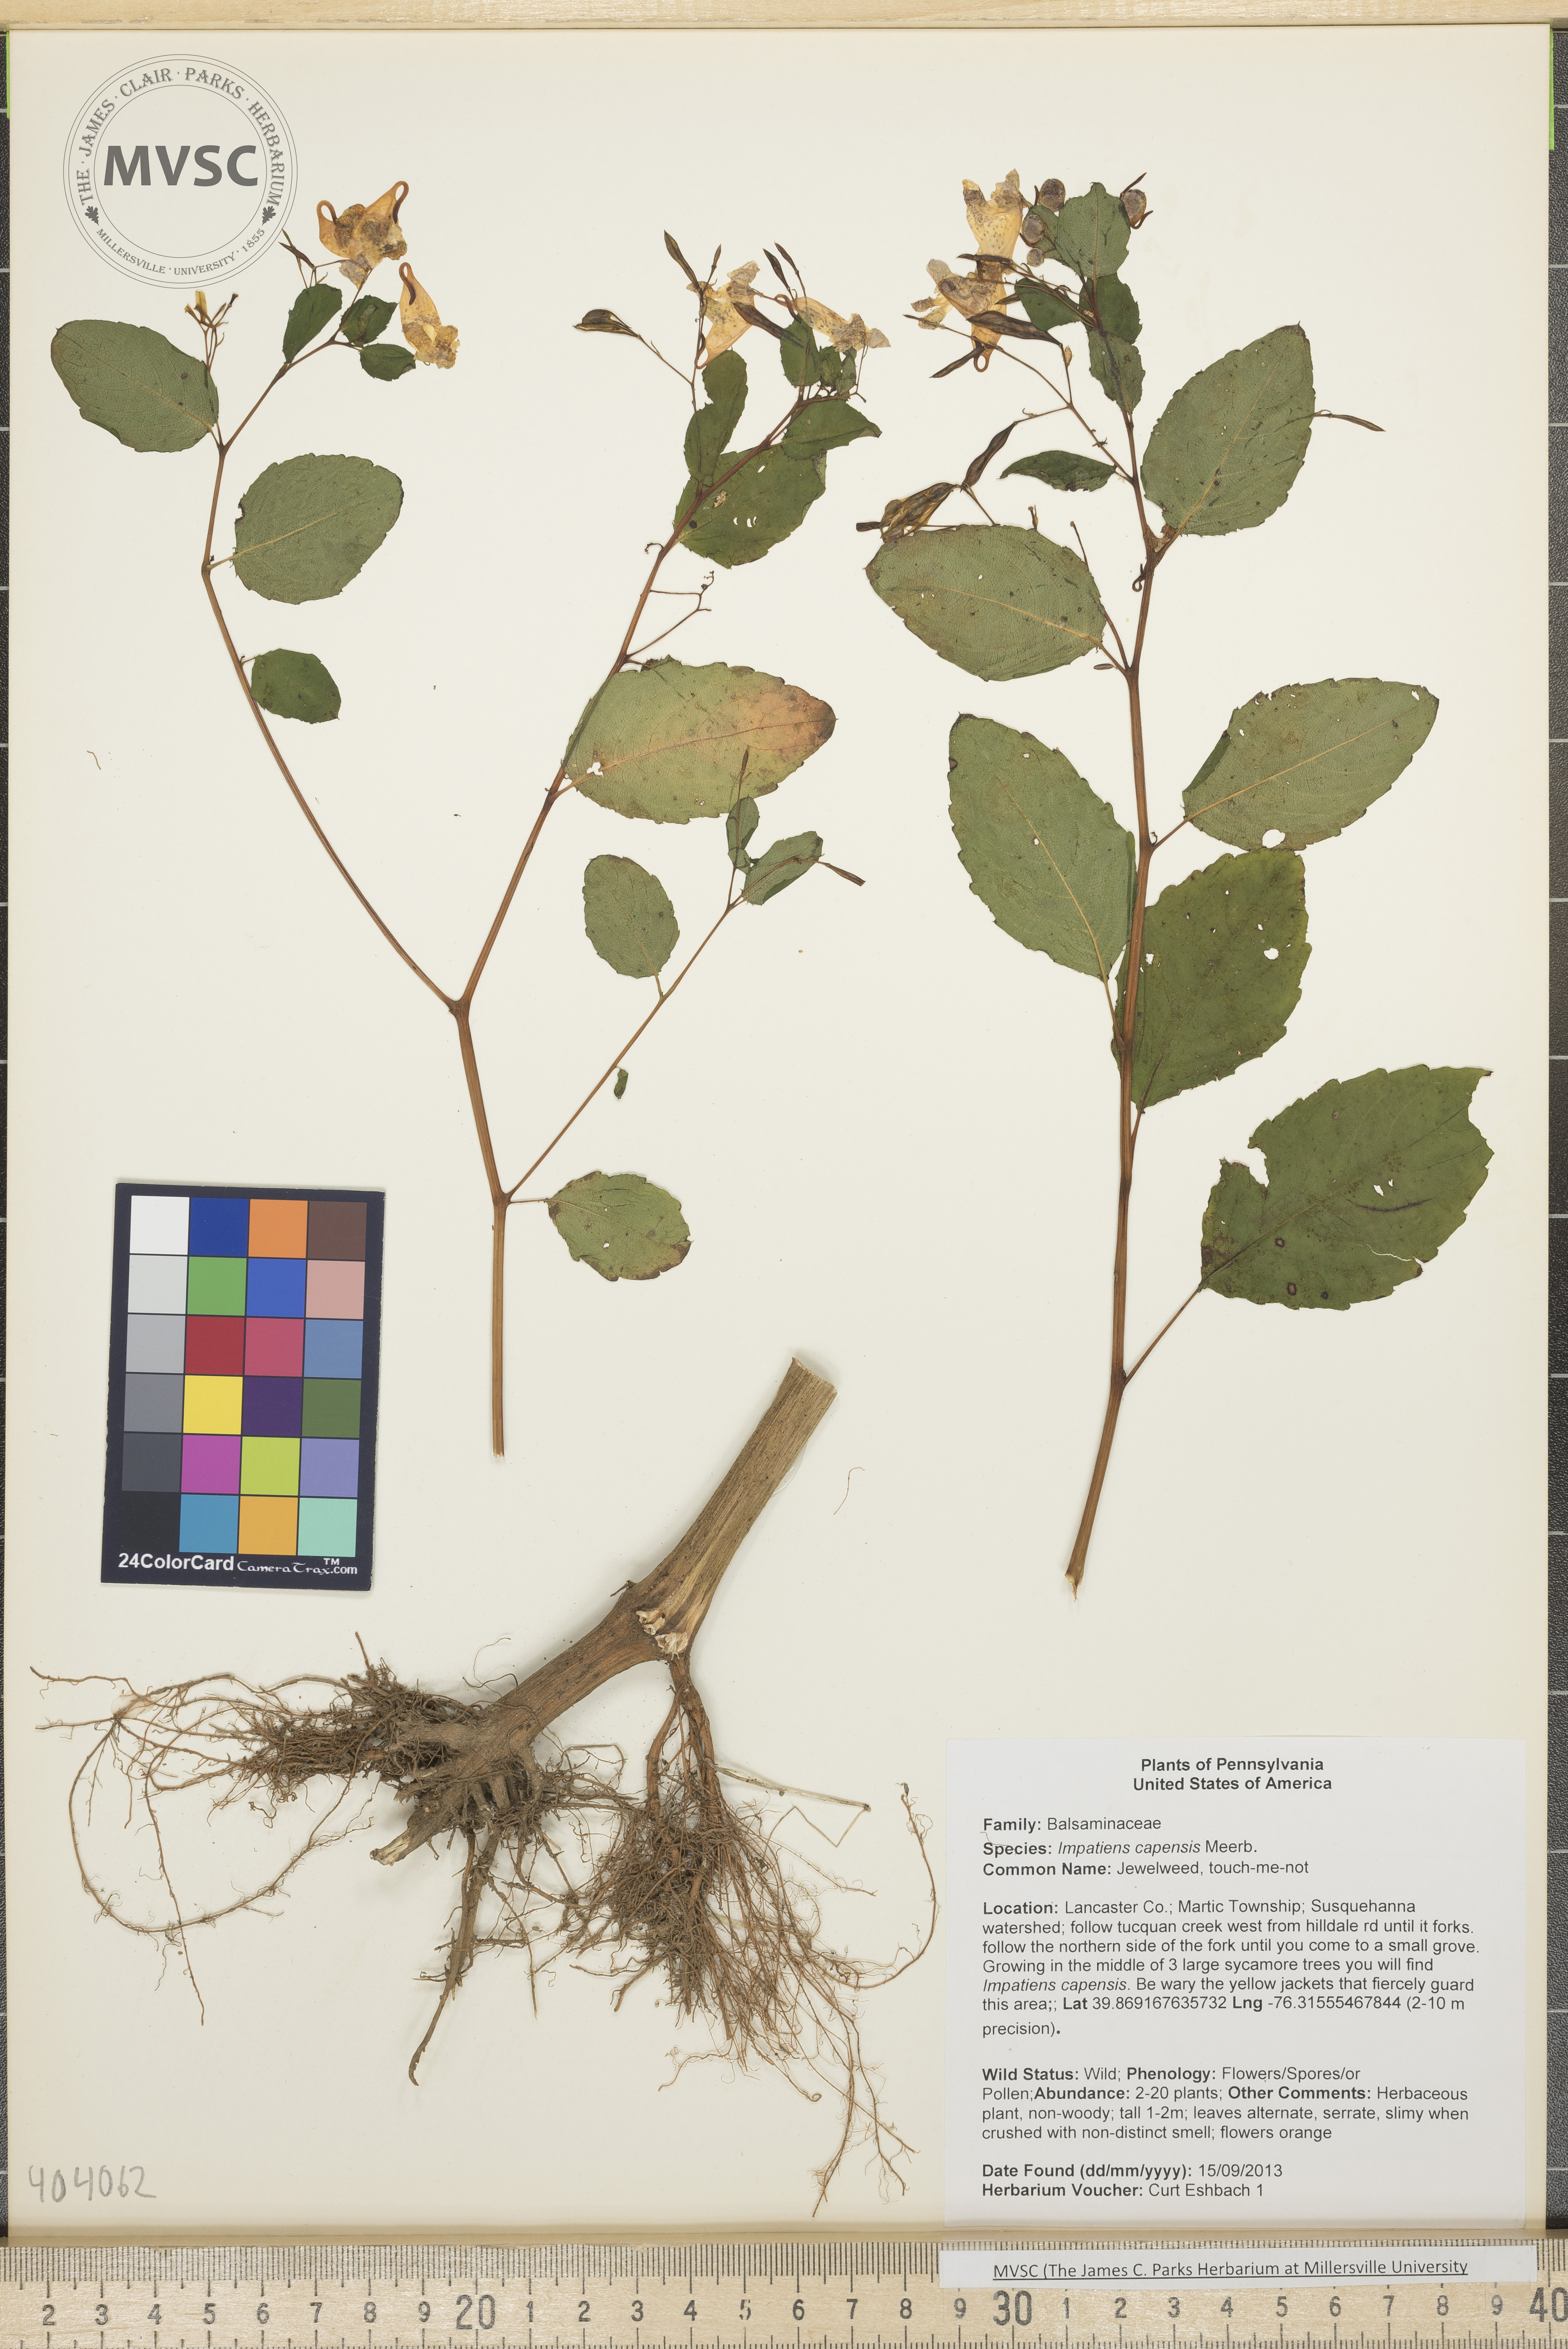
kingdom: Plantae
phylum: Tracheophyta
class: Magnoliopsida
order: Ericales
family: Balsaminaceae
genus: Impatiens
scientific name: Impatiens capensis
